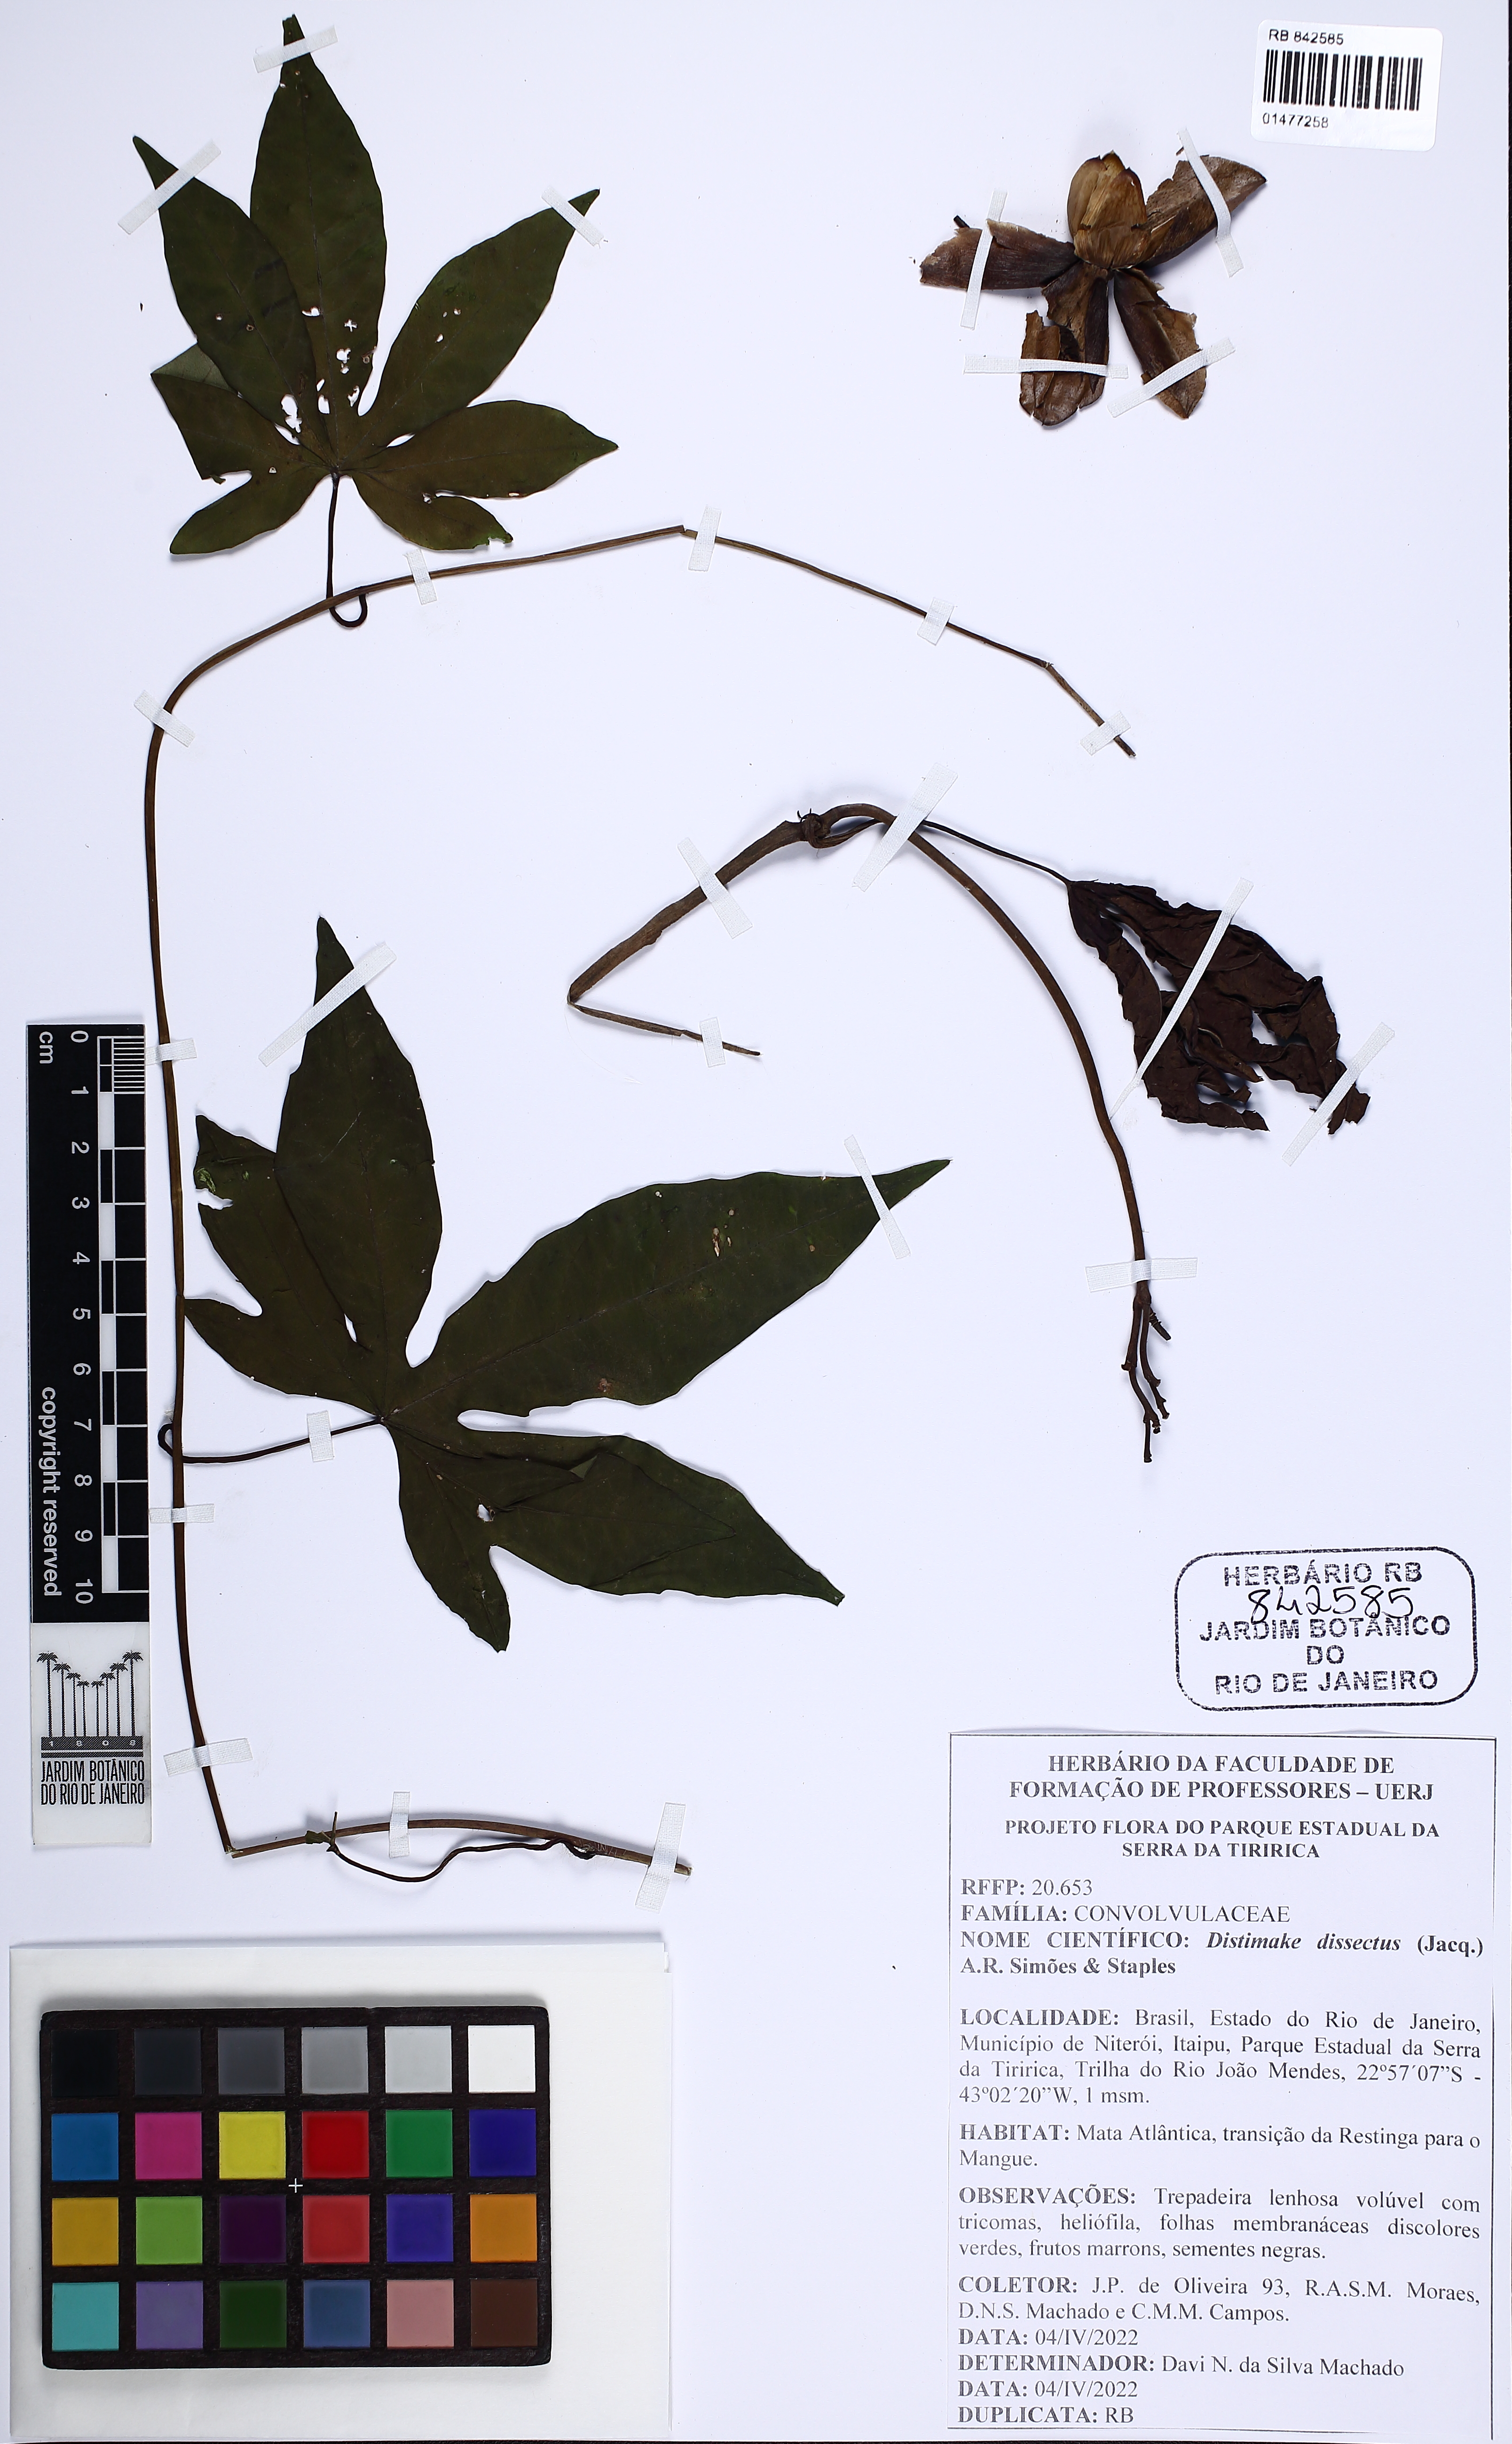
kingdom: Plantae
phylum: Tracheophyta
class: Magnoliopsida
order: Solanales
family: Convolvulaceae
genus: Distimake
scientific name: Distimake dissectus
